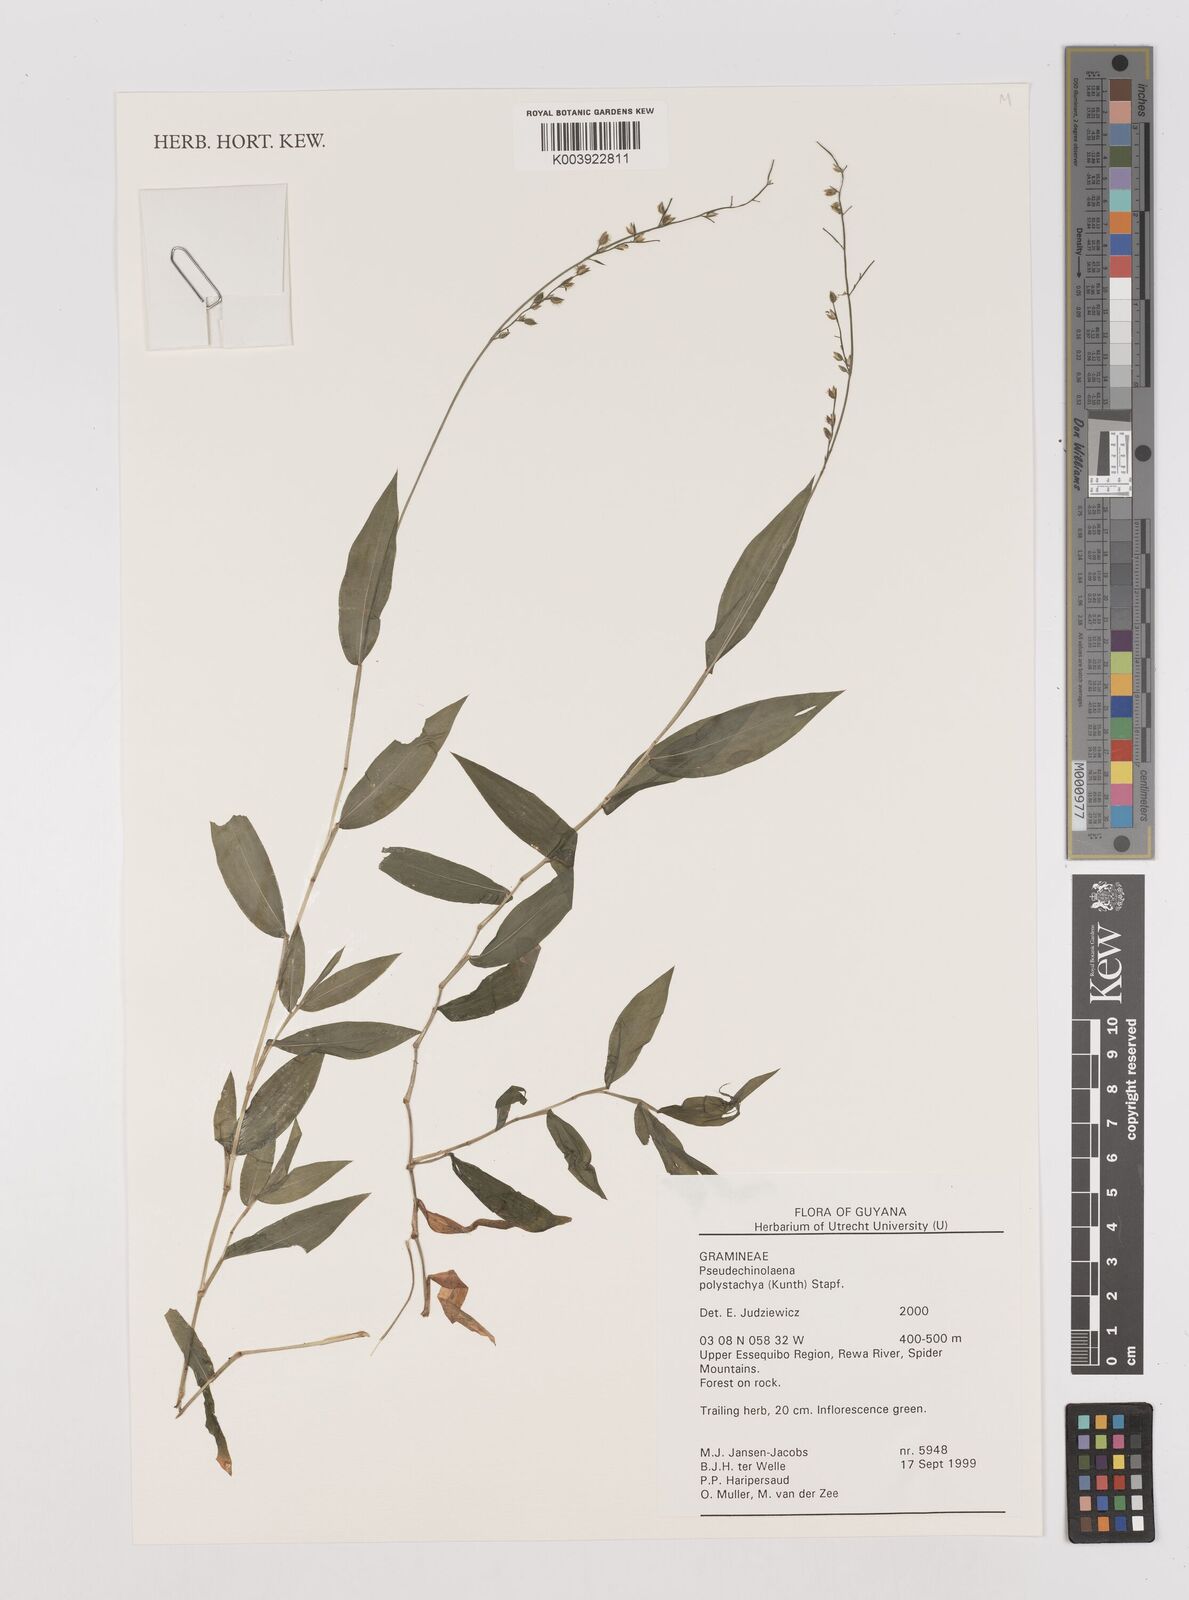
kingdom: Plantae
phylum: Tracheophyta
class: Liliopsida
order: Poales
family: Poaceae
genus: Pseudechinolaena
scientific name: Pseudechinolaena polystachya
